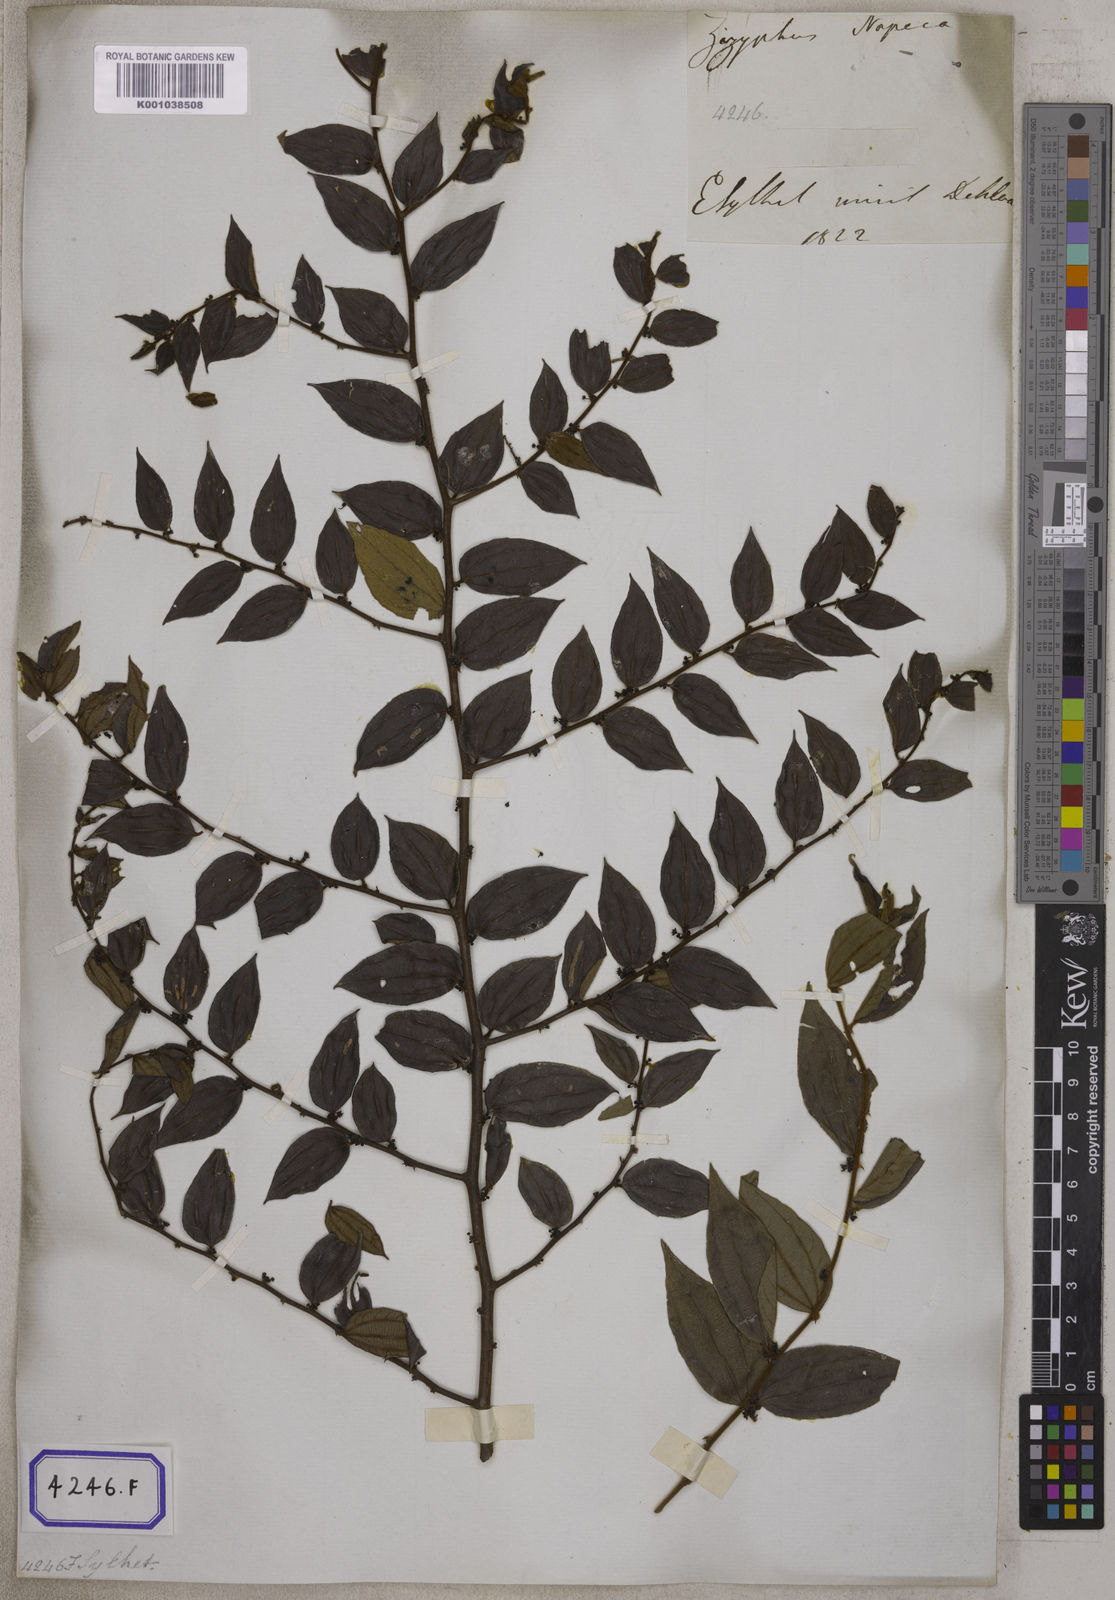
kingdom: Plantae
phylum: Tracheophyta
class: Magnoliopsida
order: Rosales
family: Rhamnaceae
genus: Ziziphus
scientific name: Ziziphus
